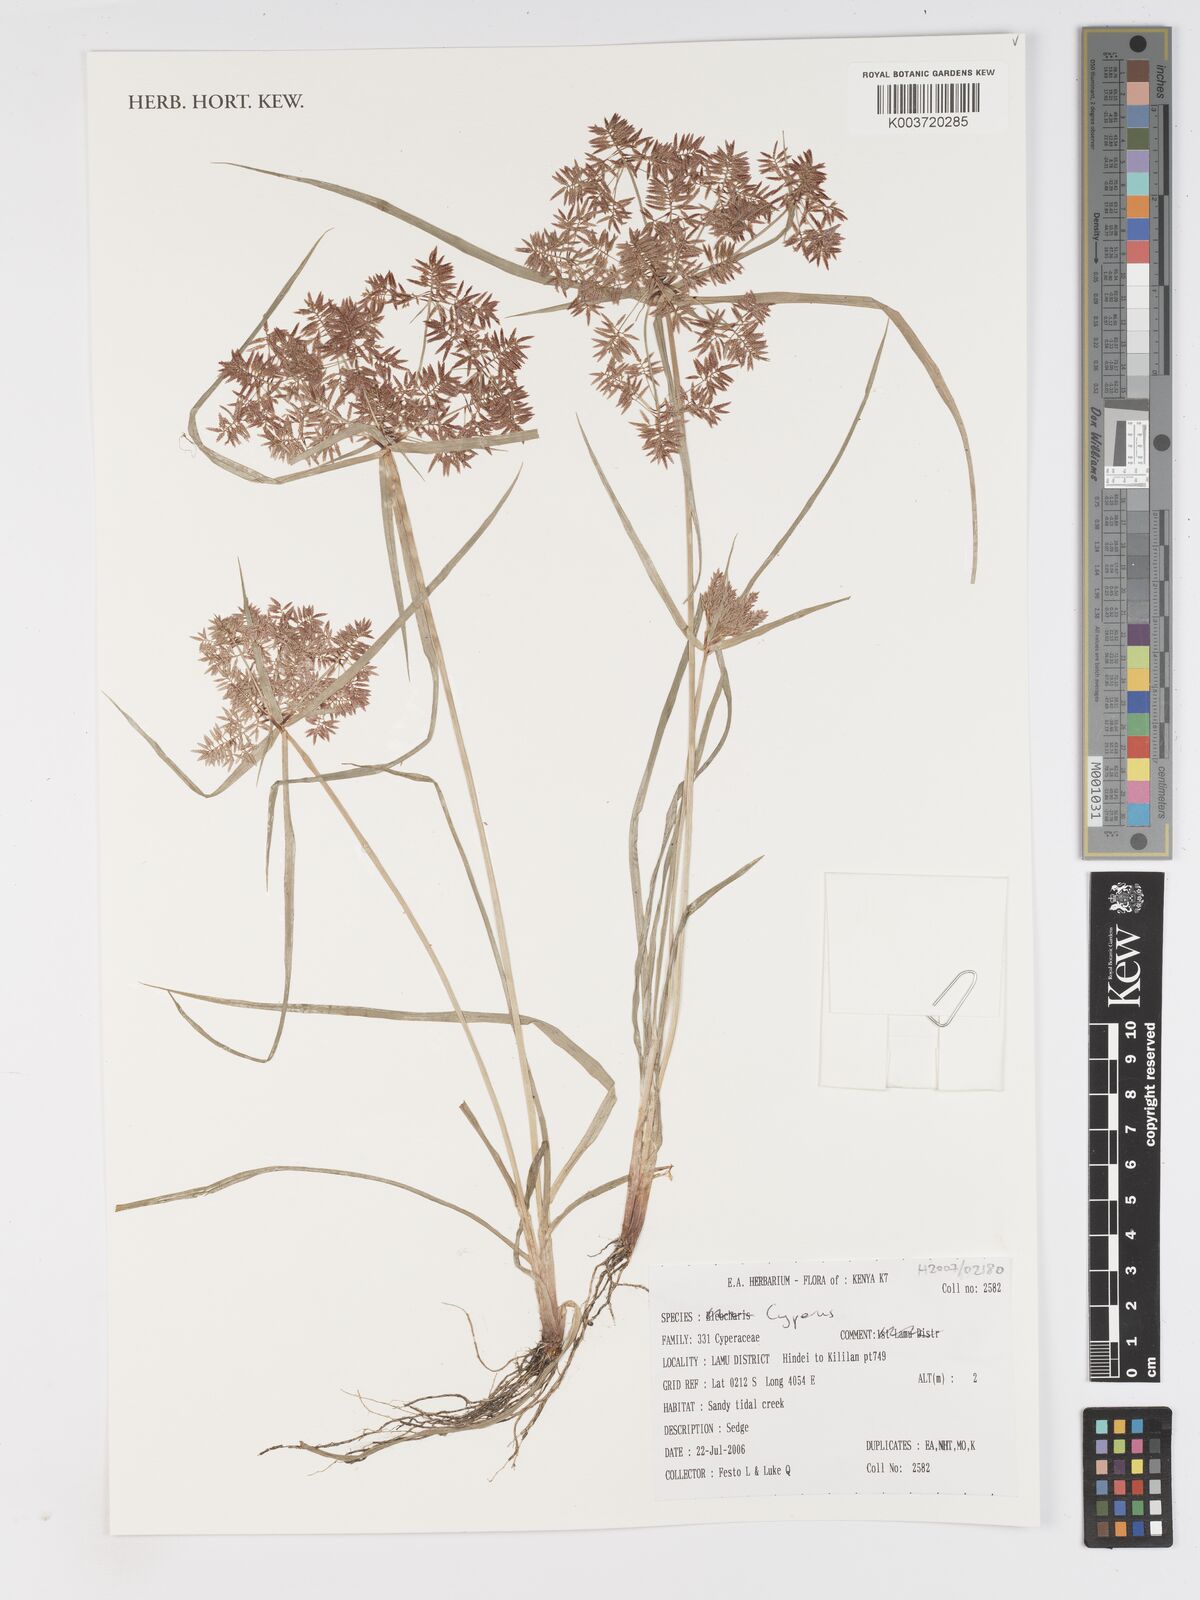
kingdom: Plantae
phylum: Tracheophyta
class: Liliopsida
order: Poales
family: Cyperaceae
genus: Cyperus
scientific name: Cyperus
